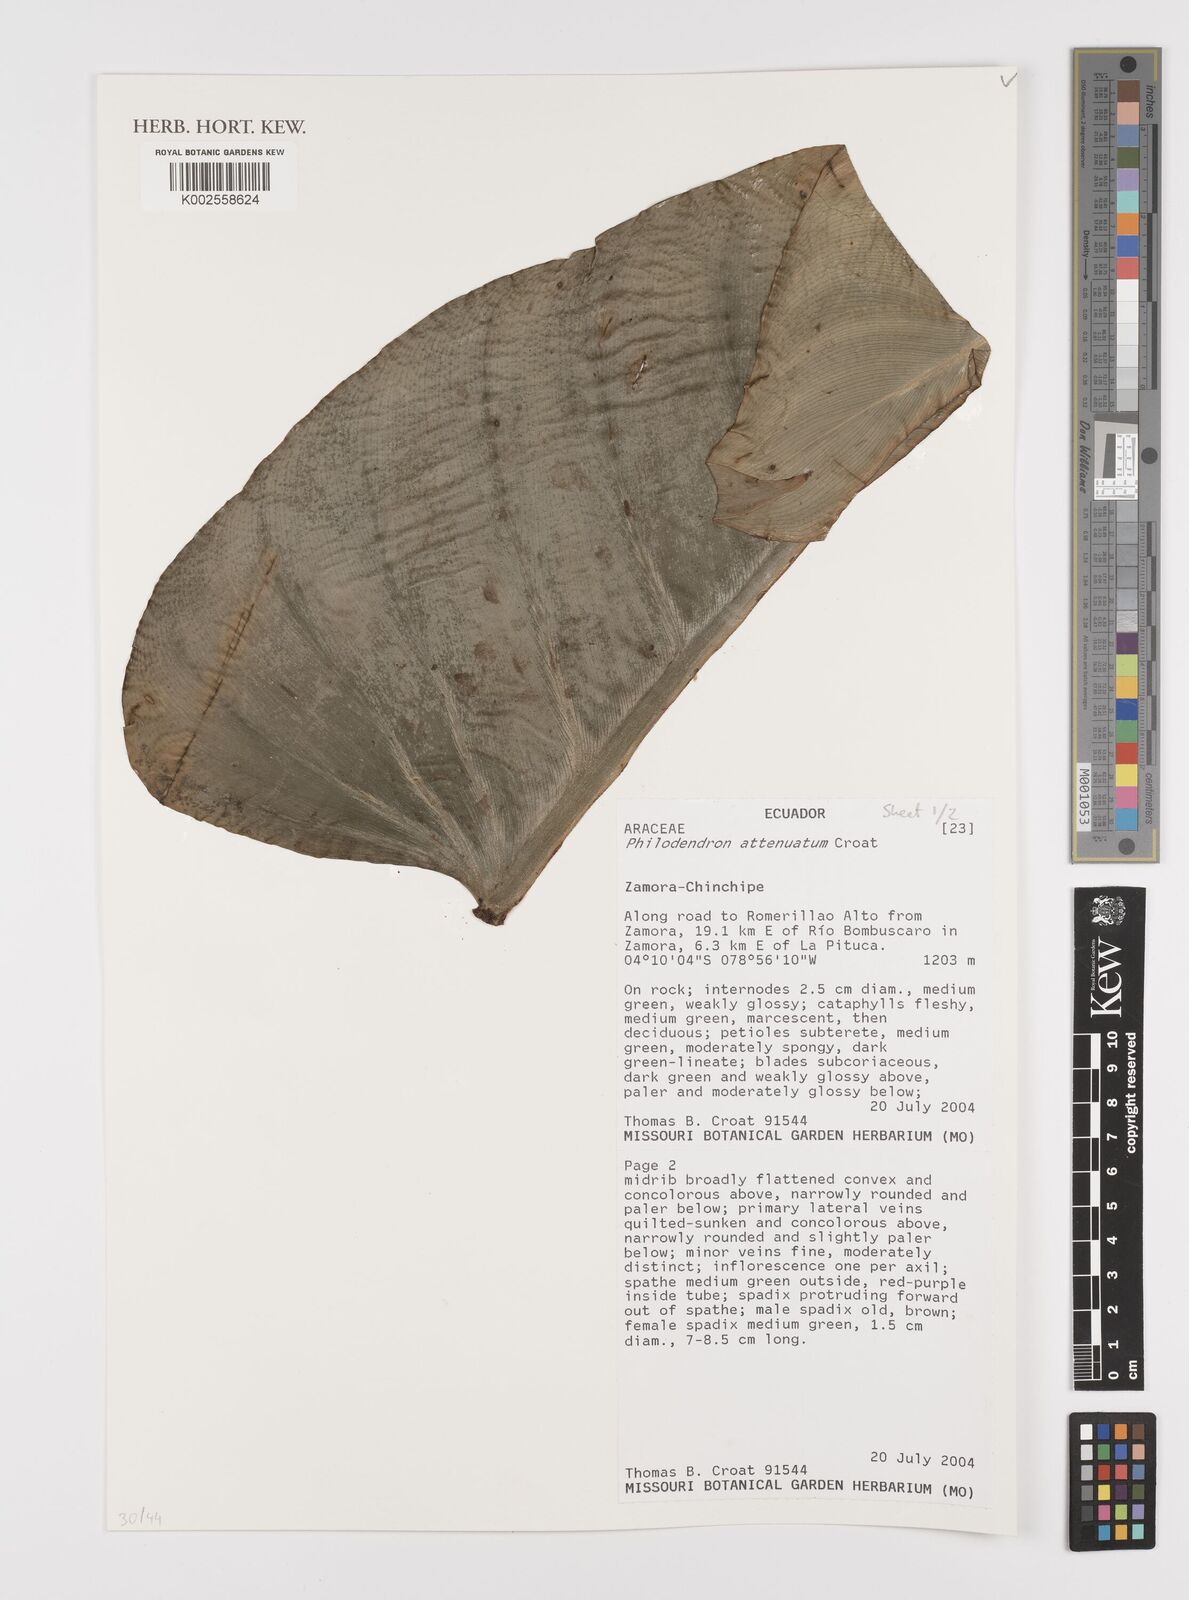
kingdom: Plantae
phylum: Tracheophyta
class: Liliopsida
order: Alismatales
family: Araceae
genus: Philodendron
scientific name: Philodendron attenuatum
